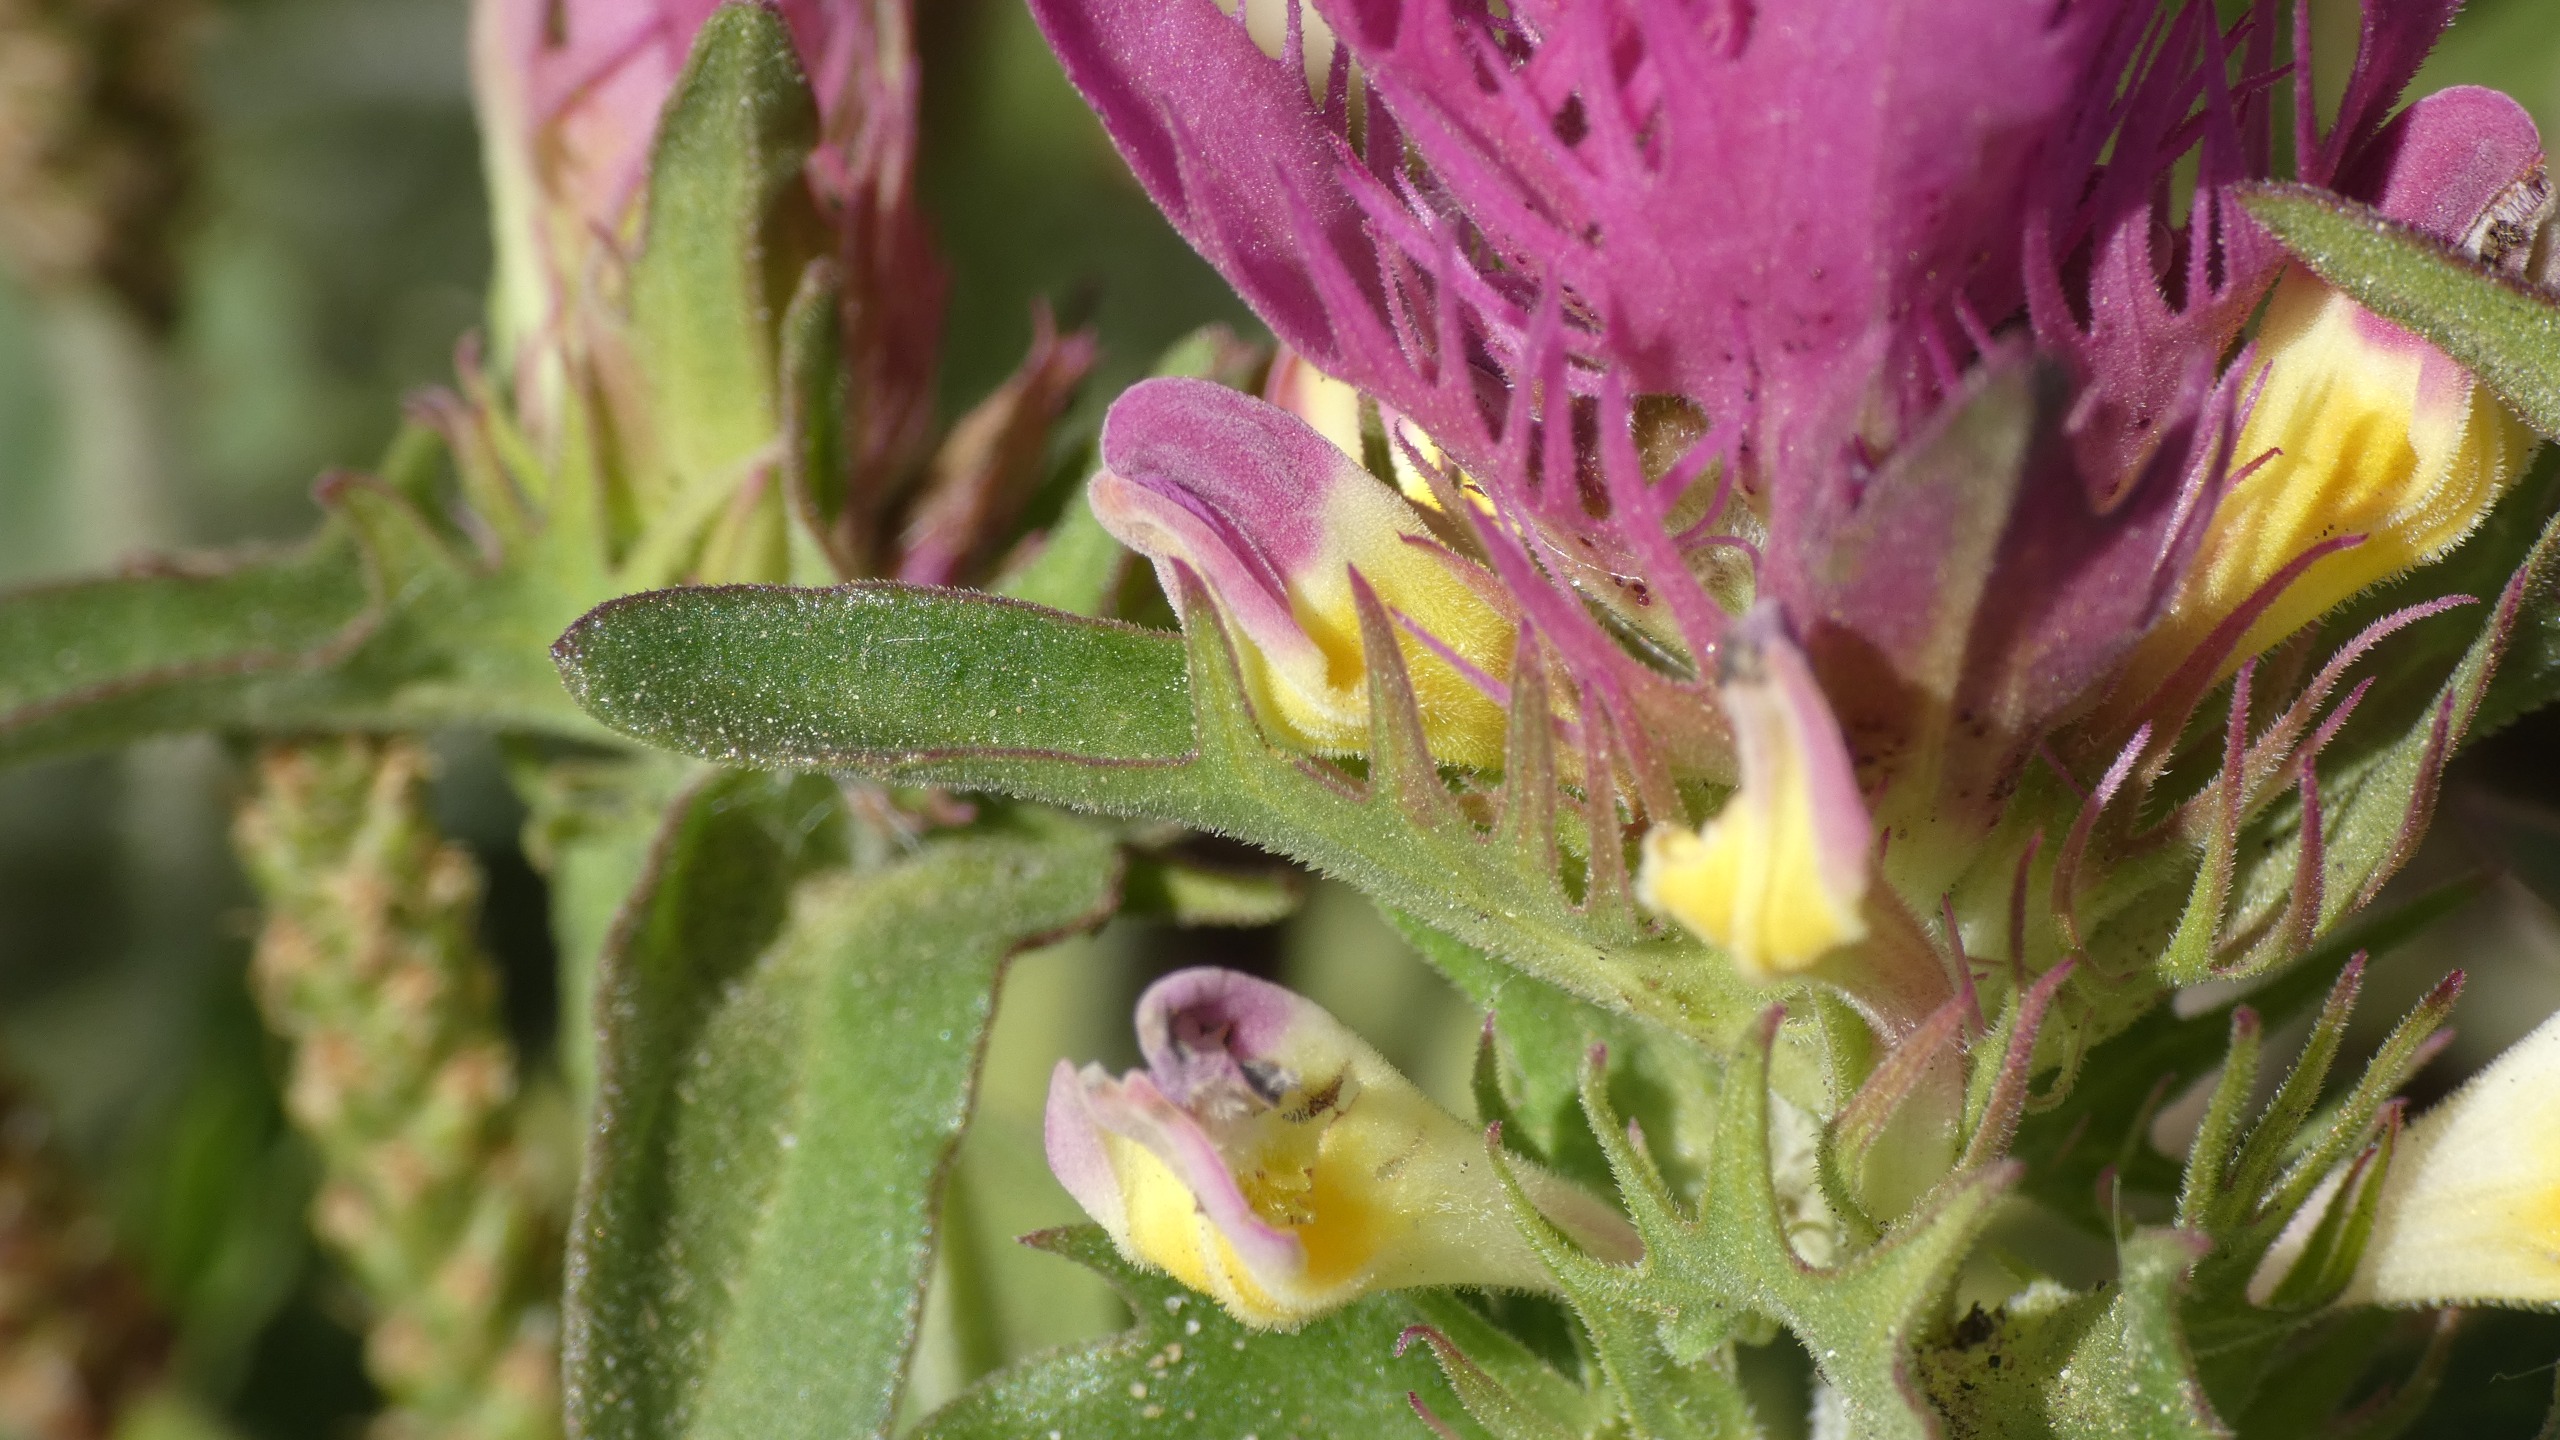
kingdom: Plantae
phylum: Tracheophyta
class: Magnoliopsida
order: Lamiales
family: Orobanchaceae
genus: Melampyrum
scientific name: Melampyrum arvense
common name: Ager-kohvede
